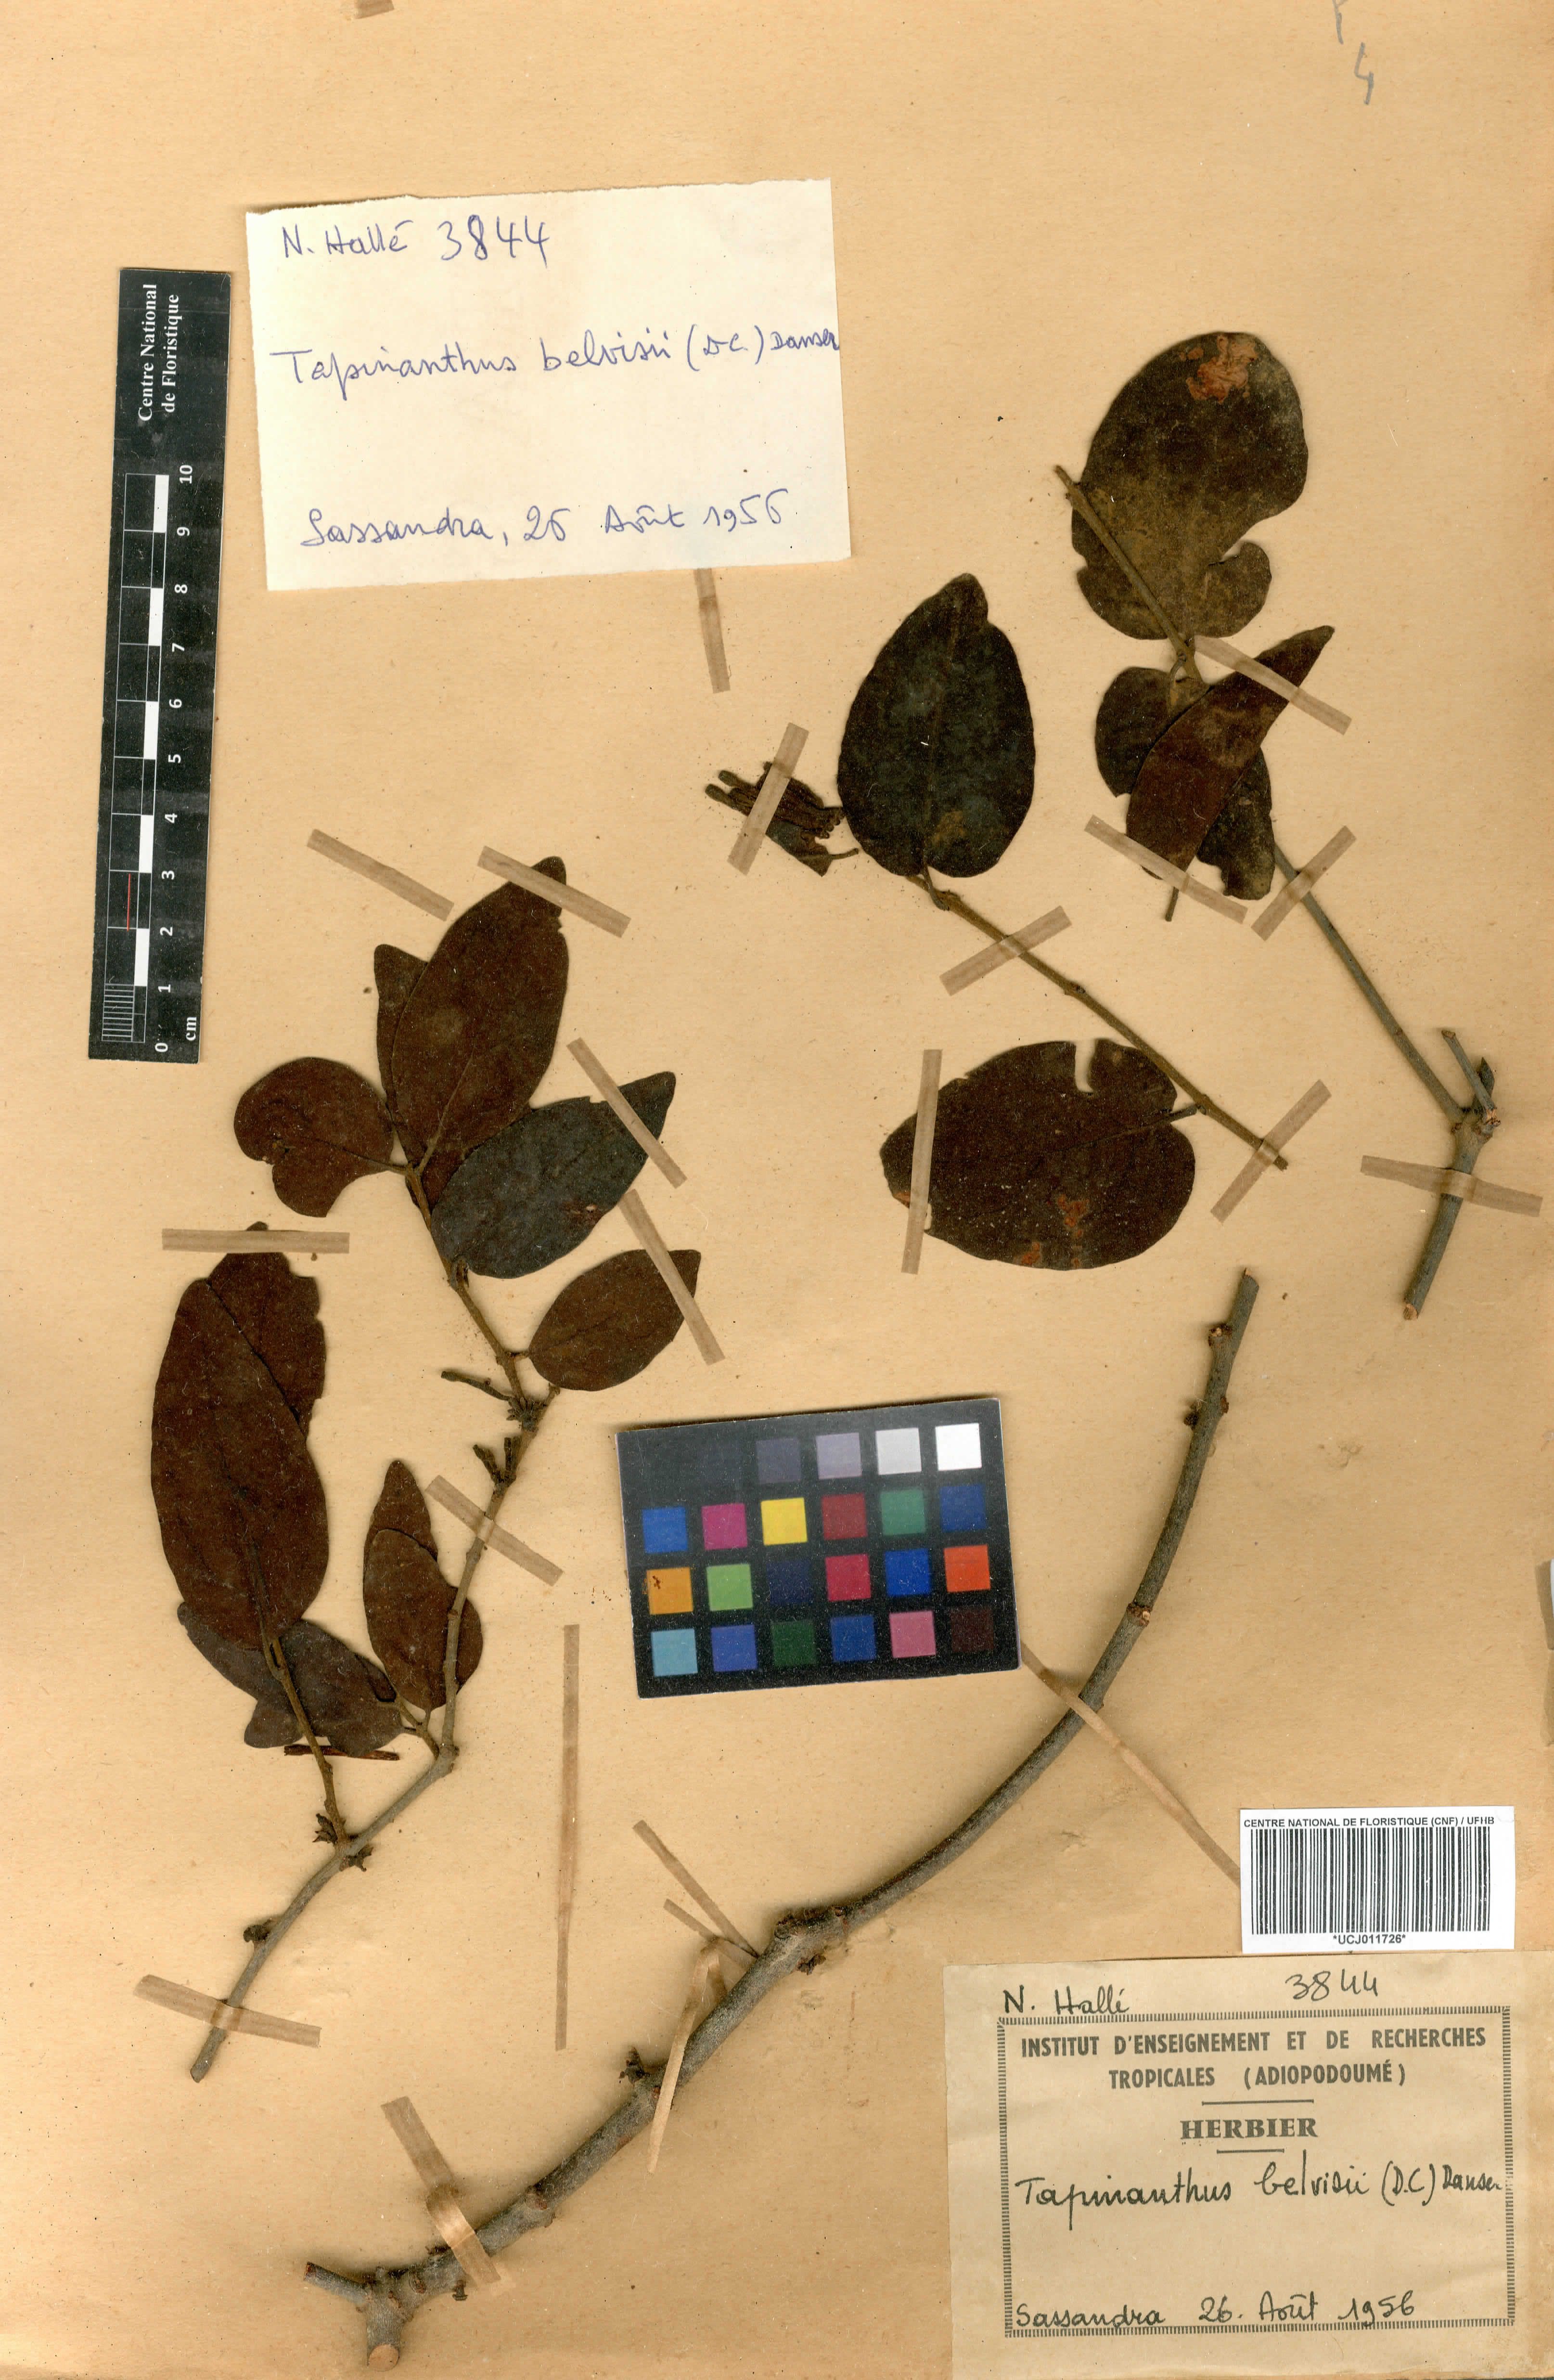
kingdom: Plantae
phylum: Tracheophyta
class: Magnoliopsida
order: Santalales
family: Loranthaceae
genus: Tapinanthus
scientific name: Tapinanthus belvisii
